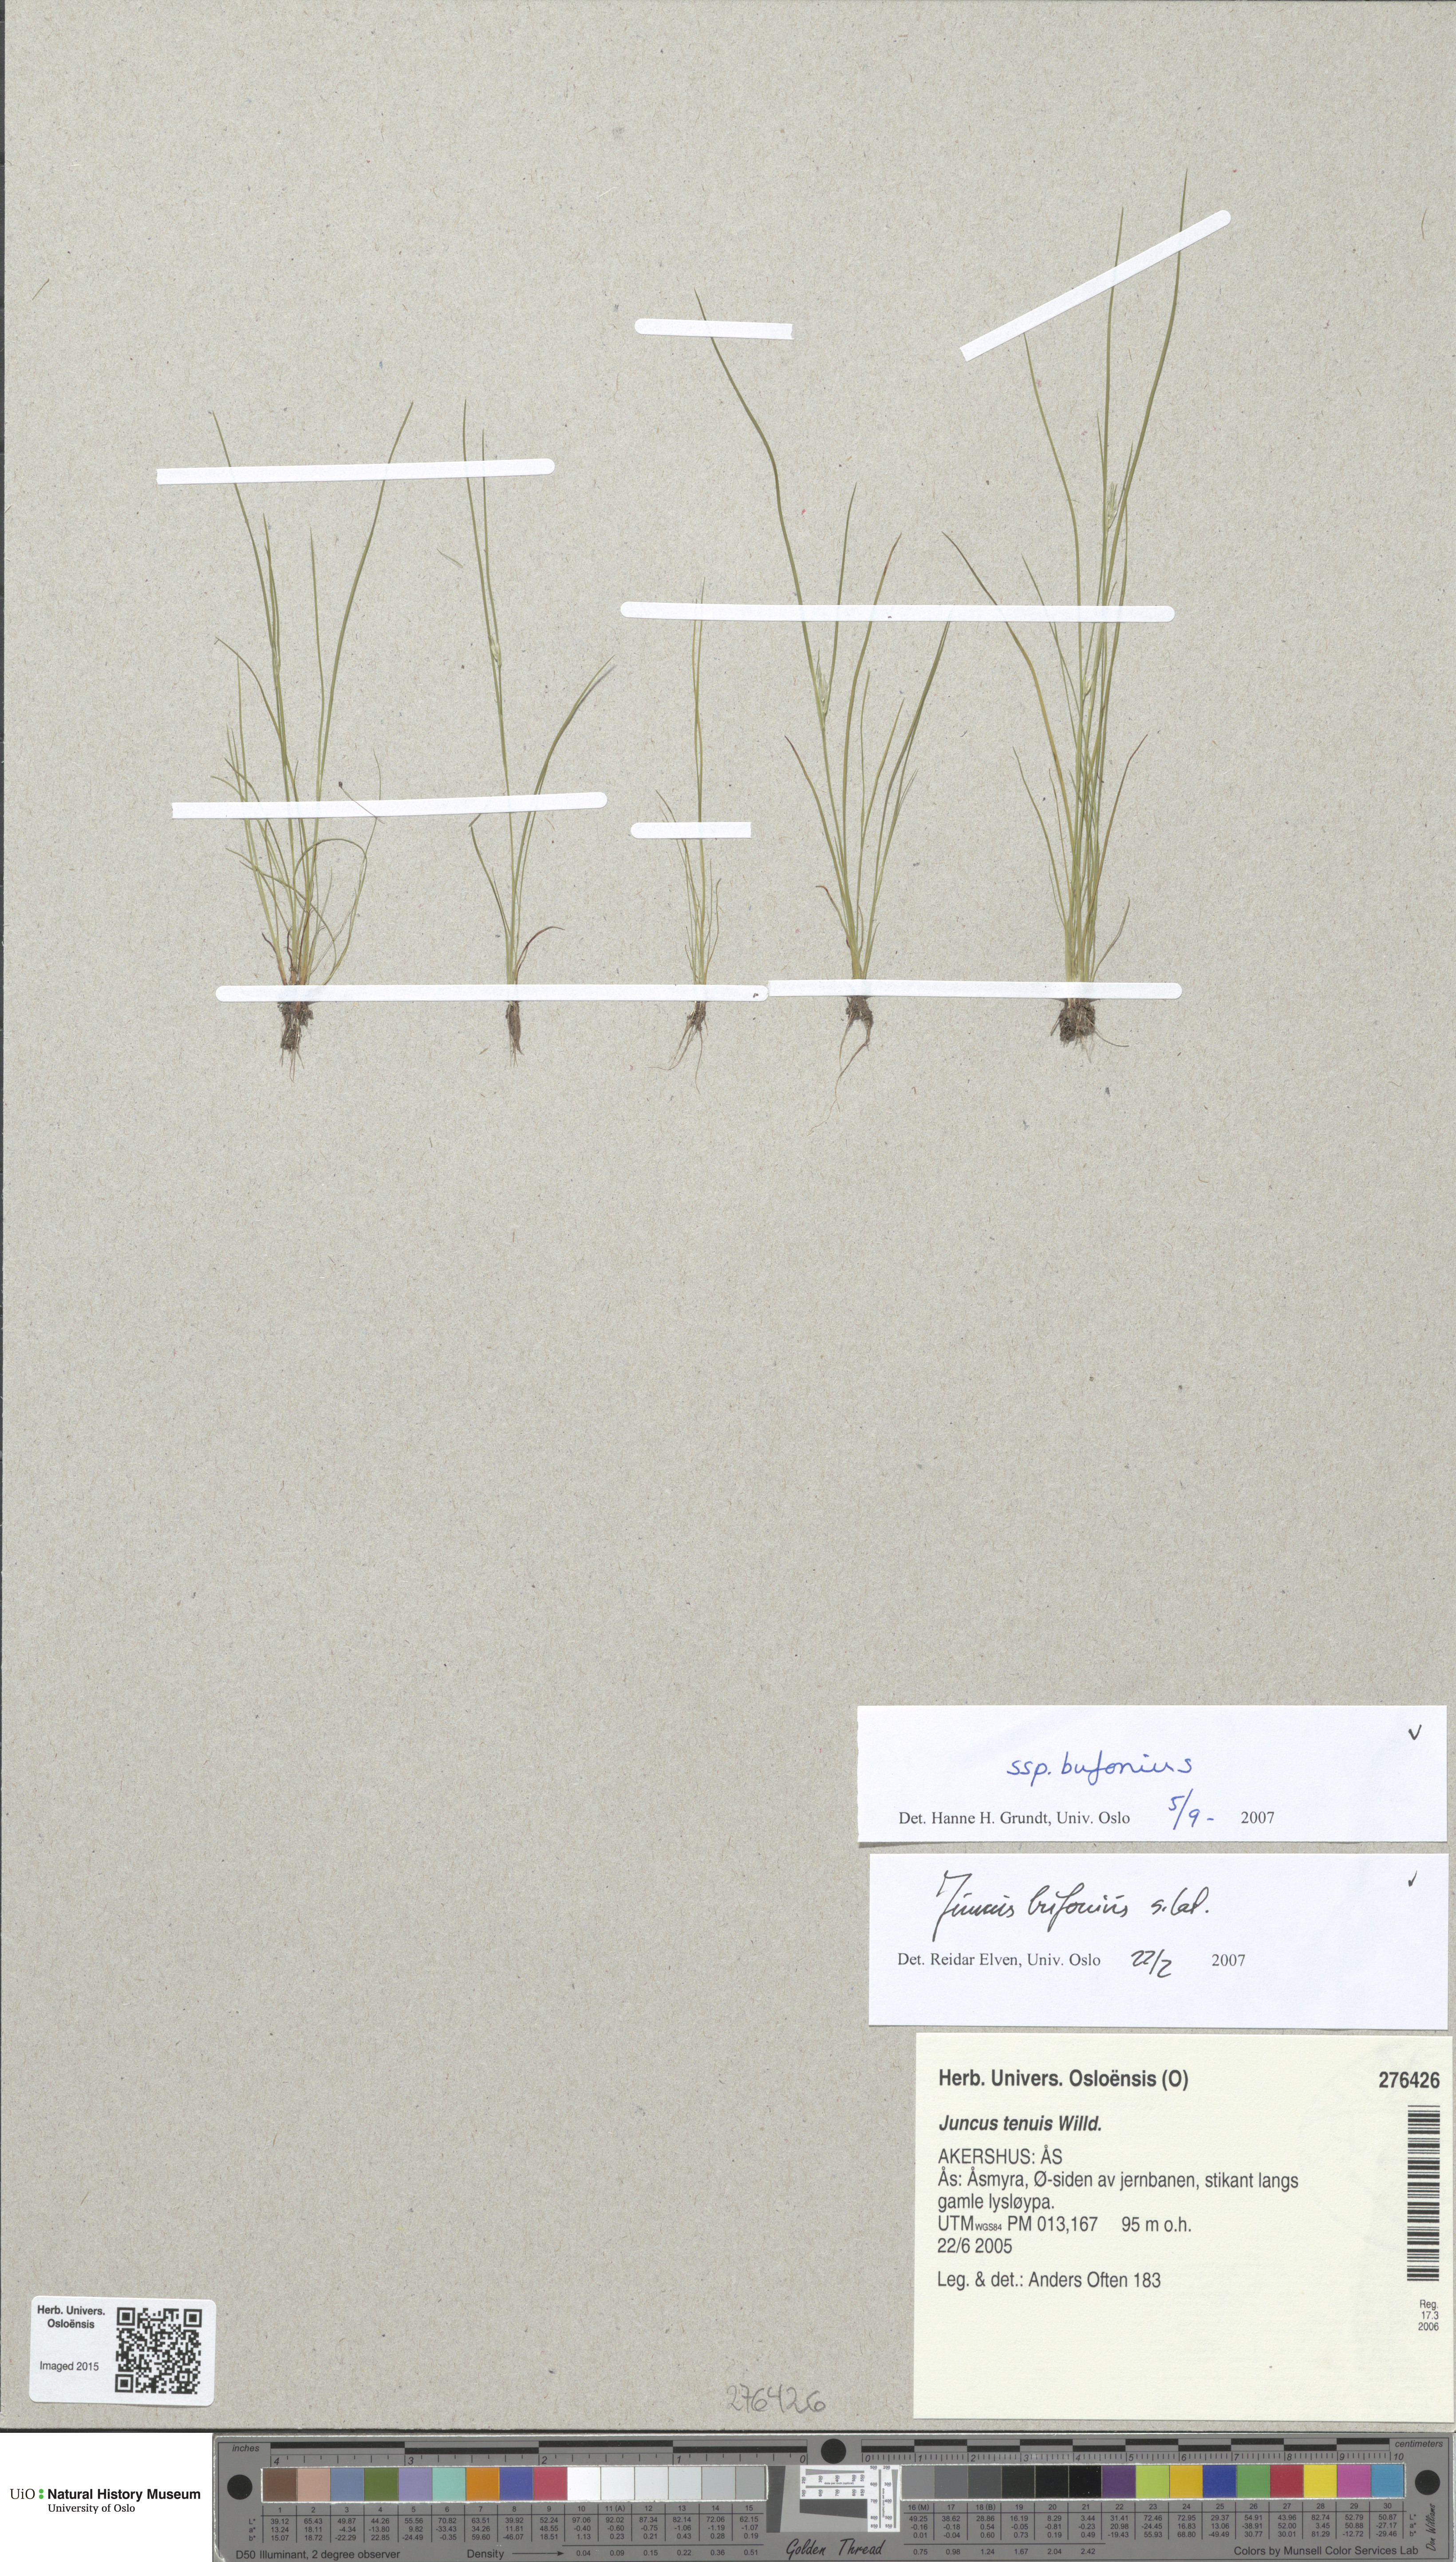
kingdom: Plantae
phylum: Tracheophyta
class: Liliopsida
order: Poales
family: Juncaceae
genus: Juncus
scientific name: Juncus bufonius
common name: Toad rush
